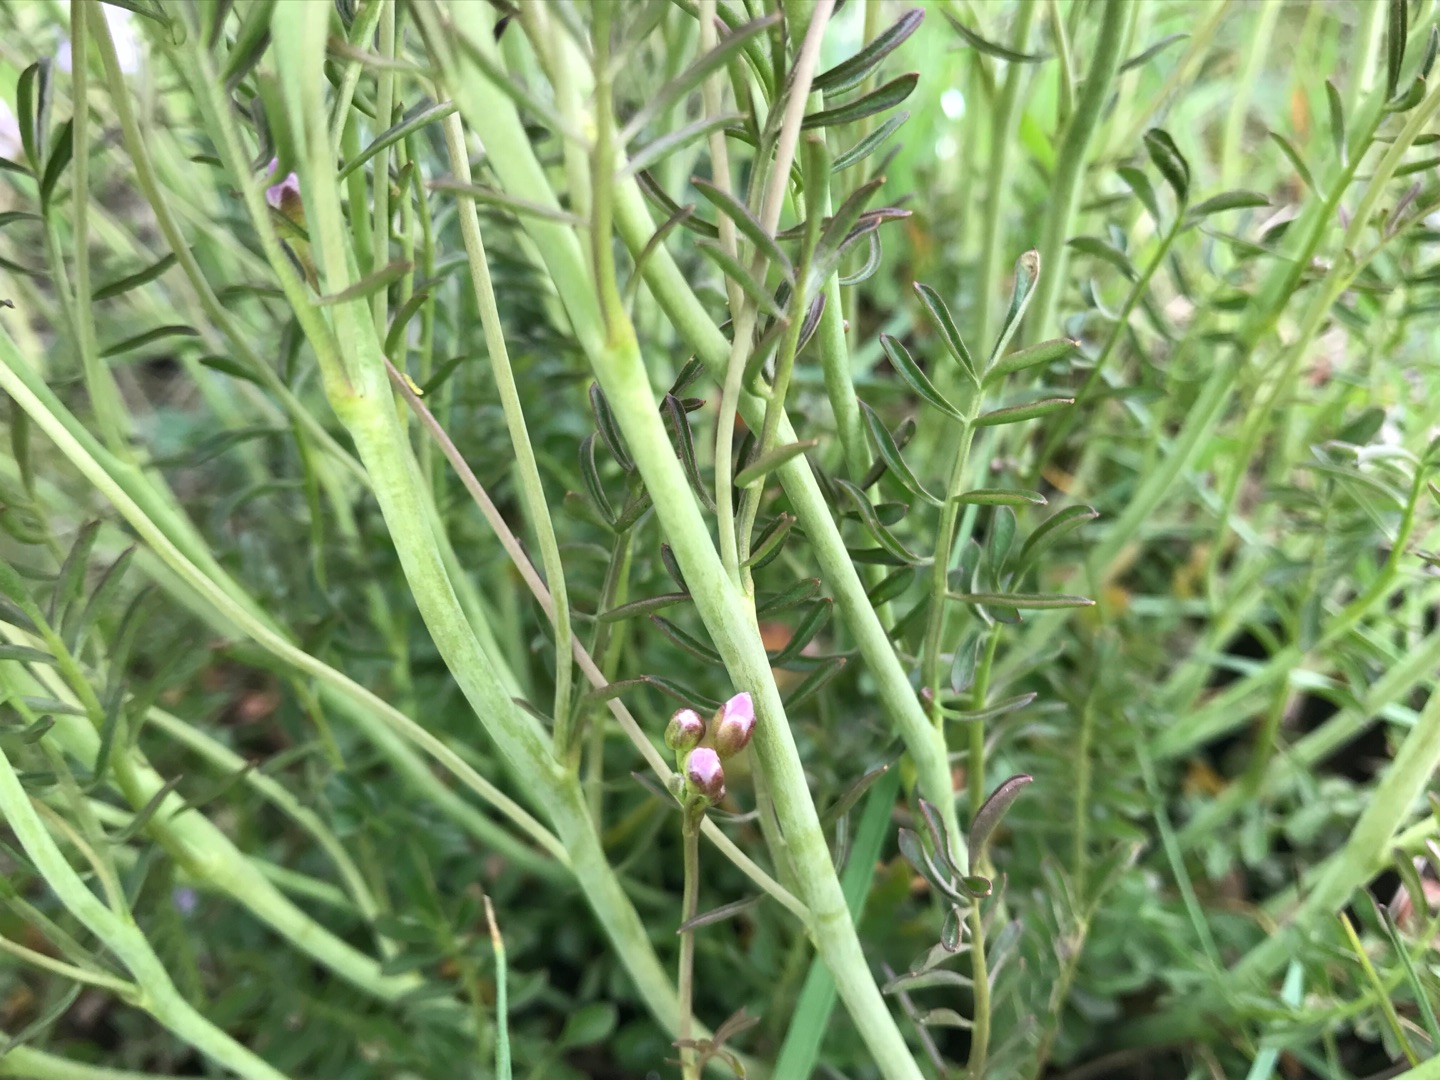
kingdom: Plantae
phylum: Tracheophyta
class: Magnoliopsida
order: Brassicales
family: Brassicaceae
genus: Cardamine
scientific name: Cardamine pratensis
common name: Sumpkarse
